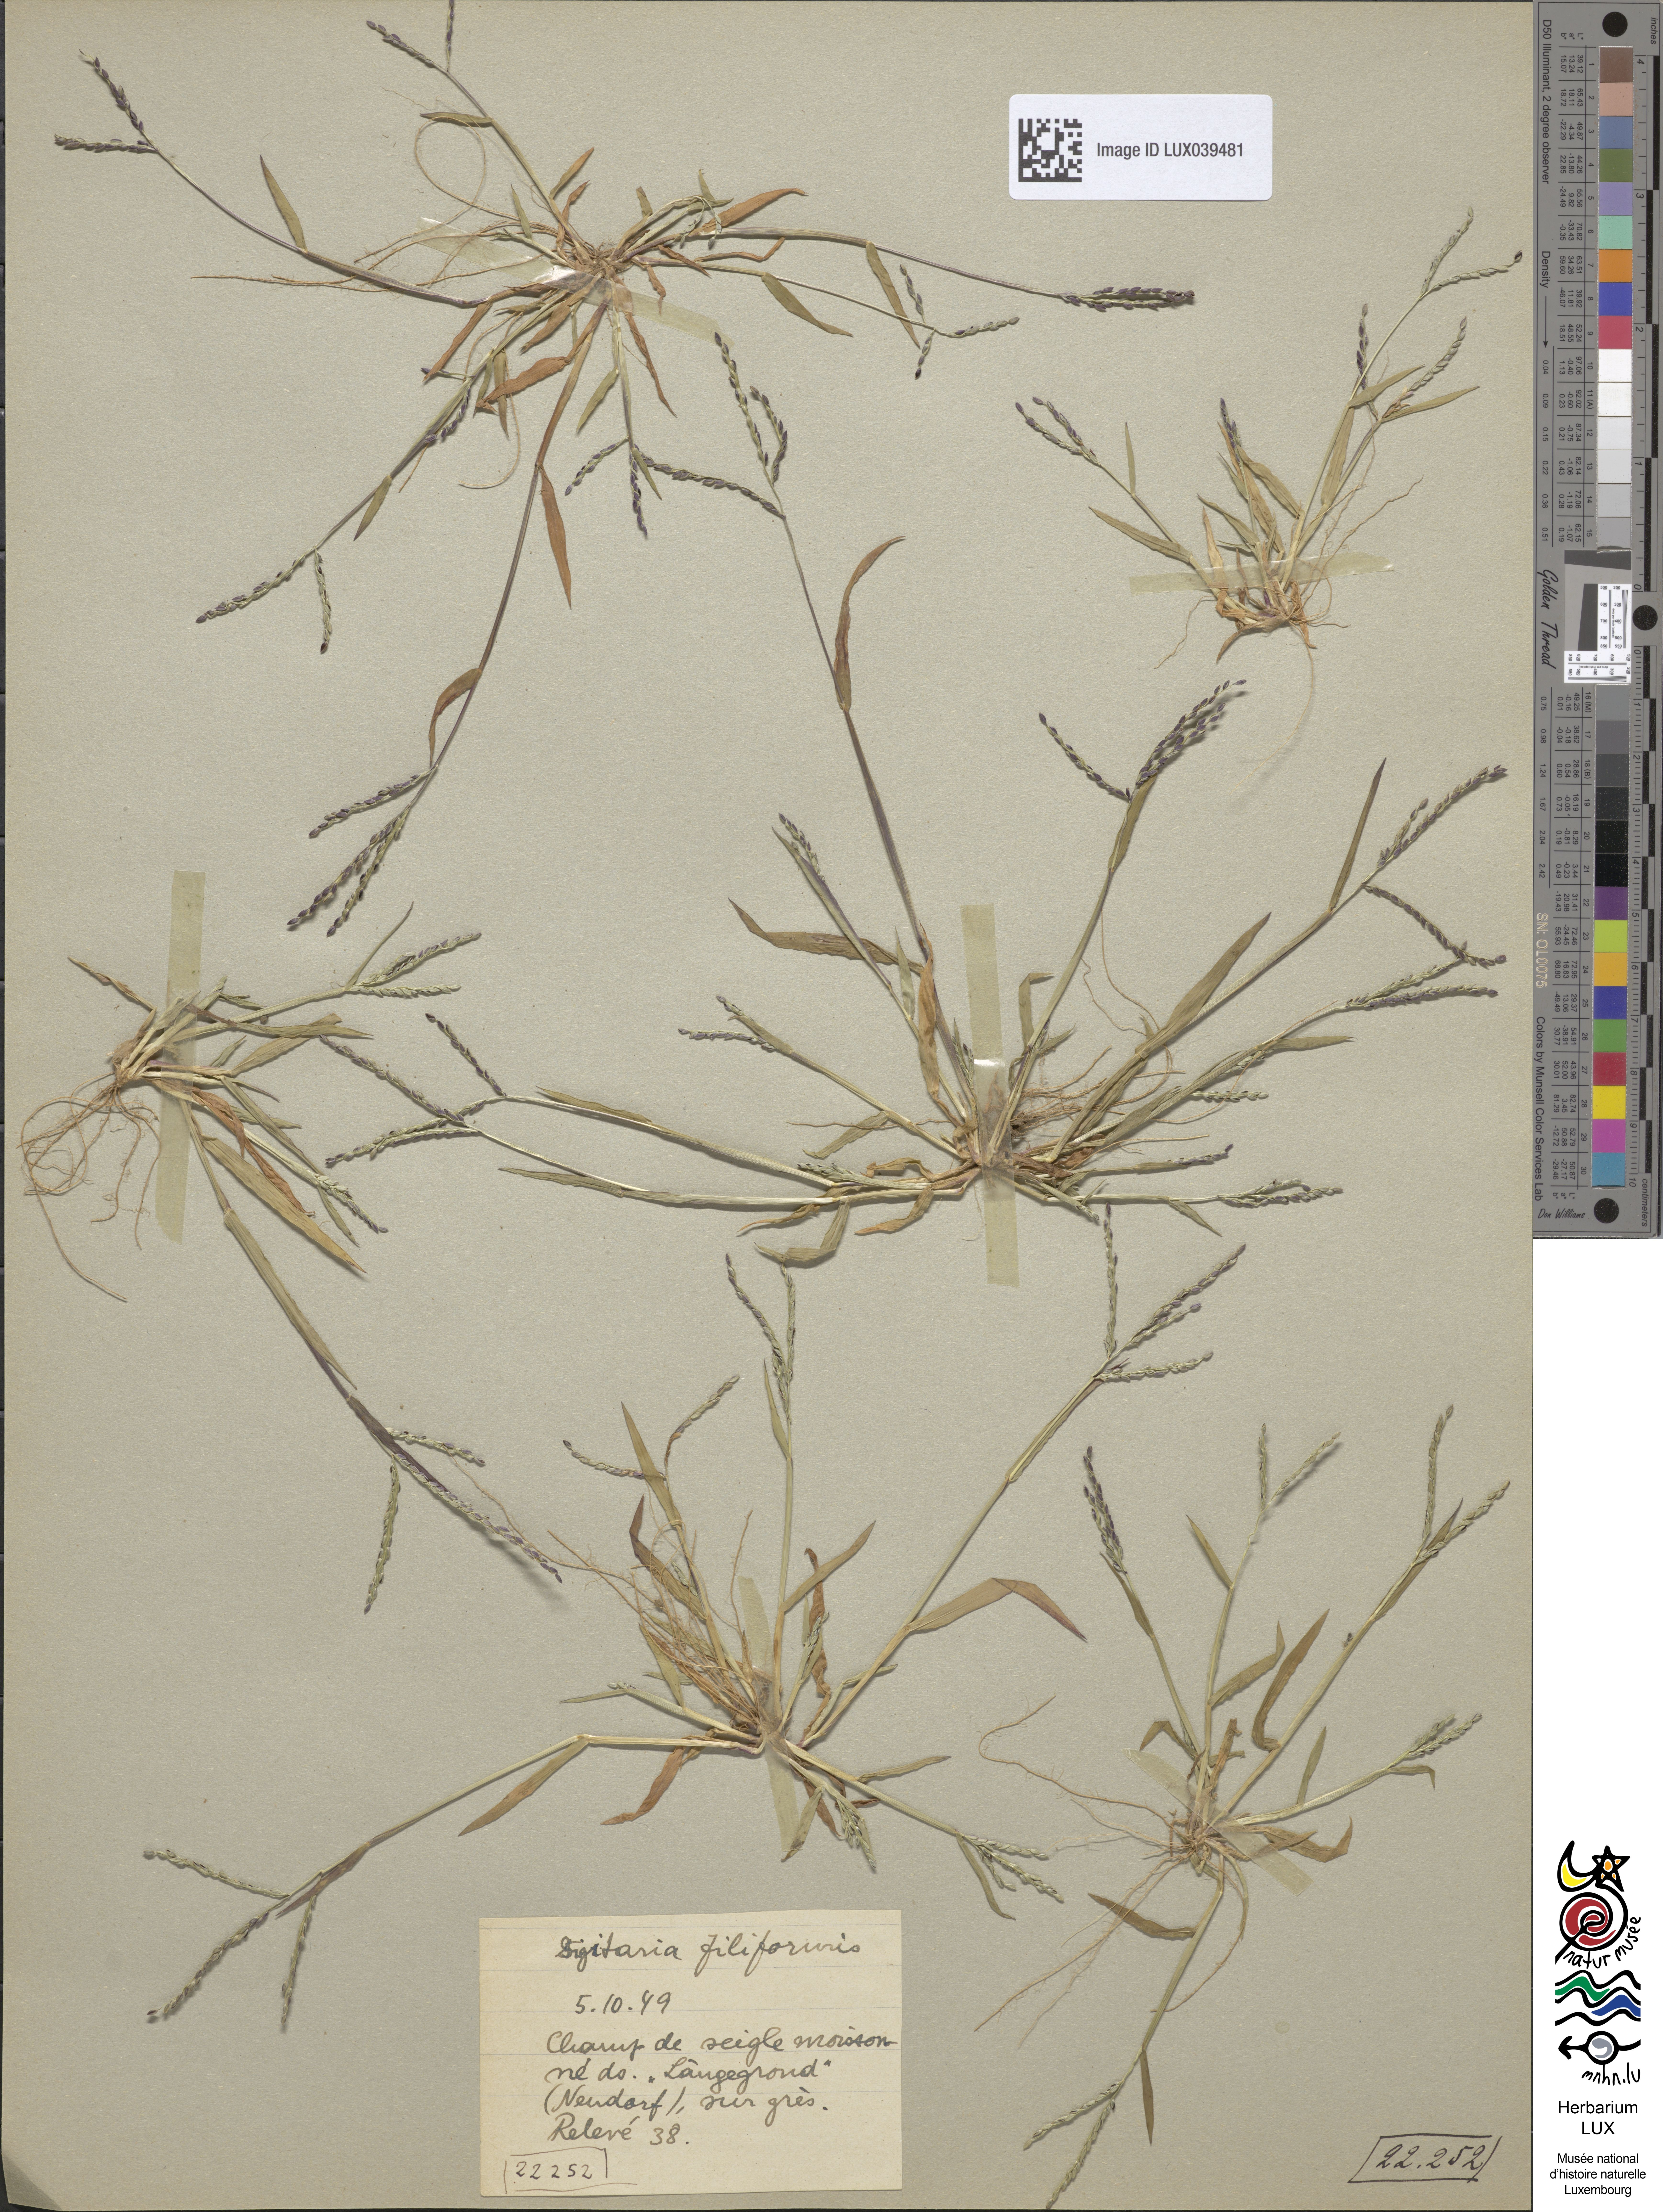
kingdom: Plantae
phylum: Tracheophyta
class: Liliopsida
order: Poales
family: Poaceae
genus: Digitaria
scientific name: Digitaria ischaemum
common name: Smooth crabgrass
